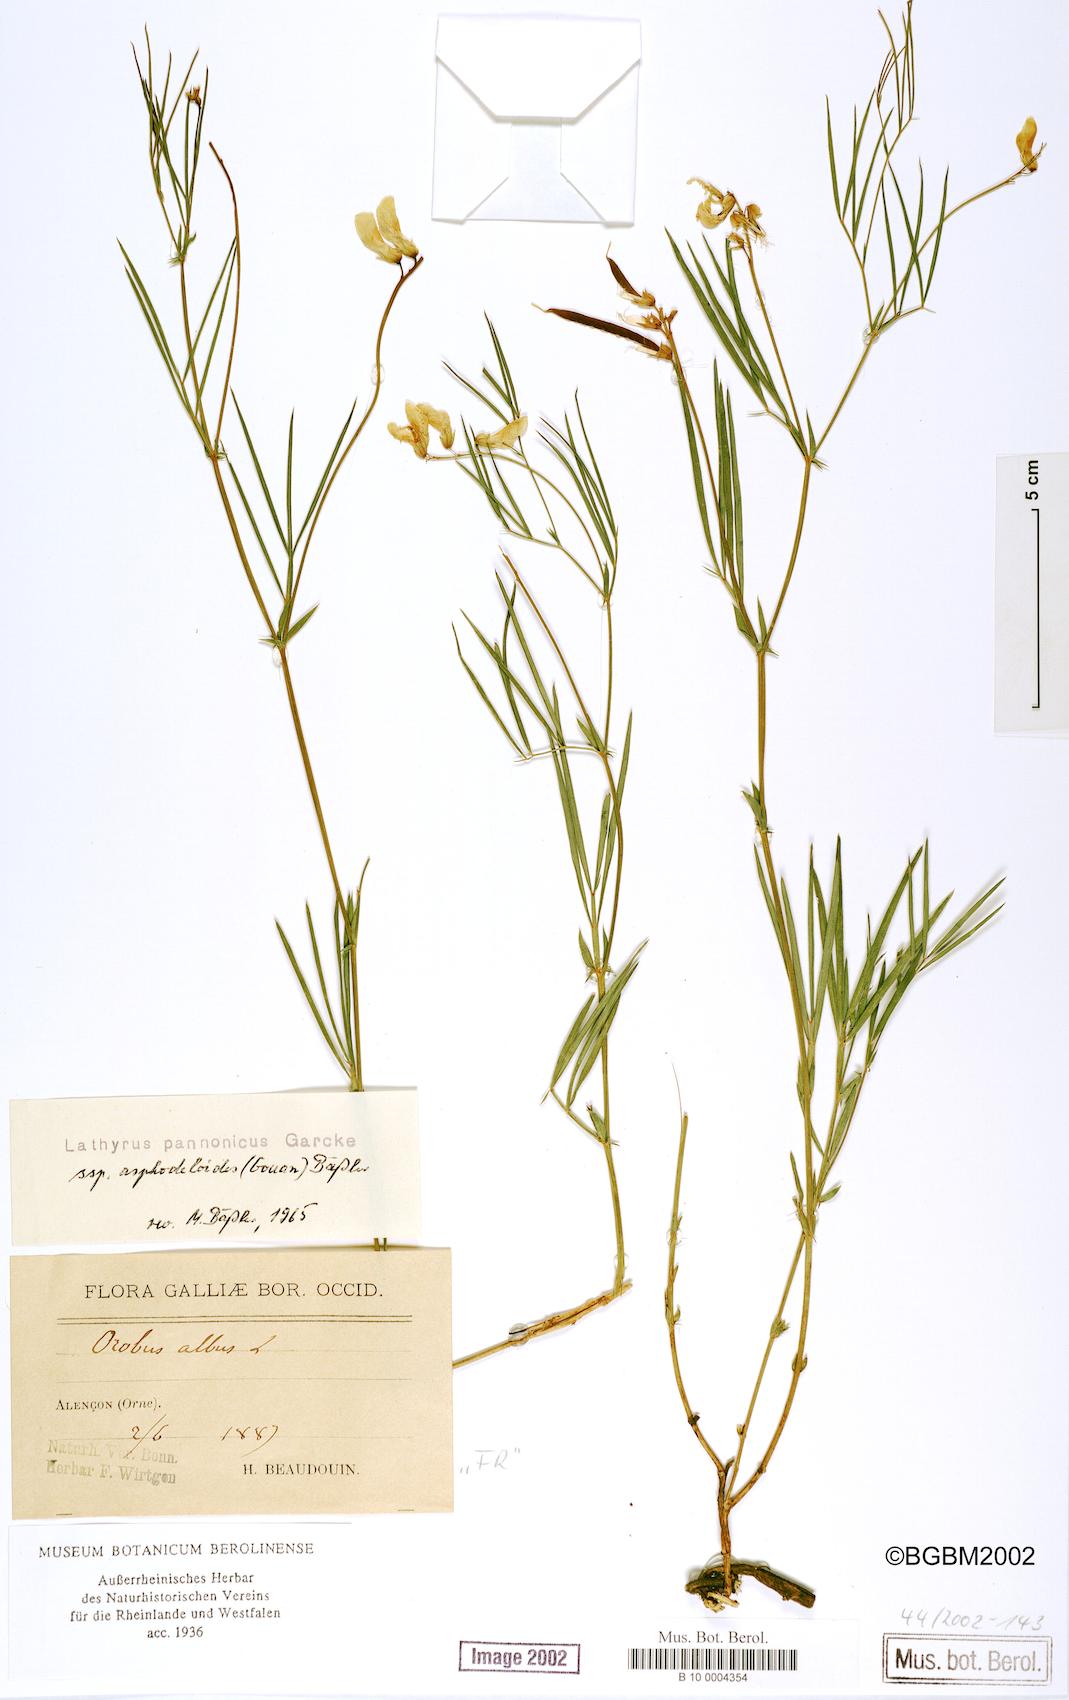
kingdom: Plantae
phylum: Tracheophyta
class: Magnoliopsida
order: Fabales
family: Fabaceae
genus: Lathyrus
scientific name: Lathyrus pannonicus
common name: Pea
